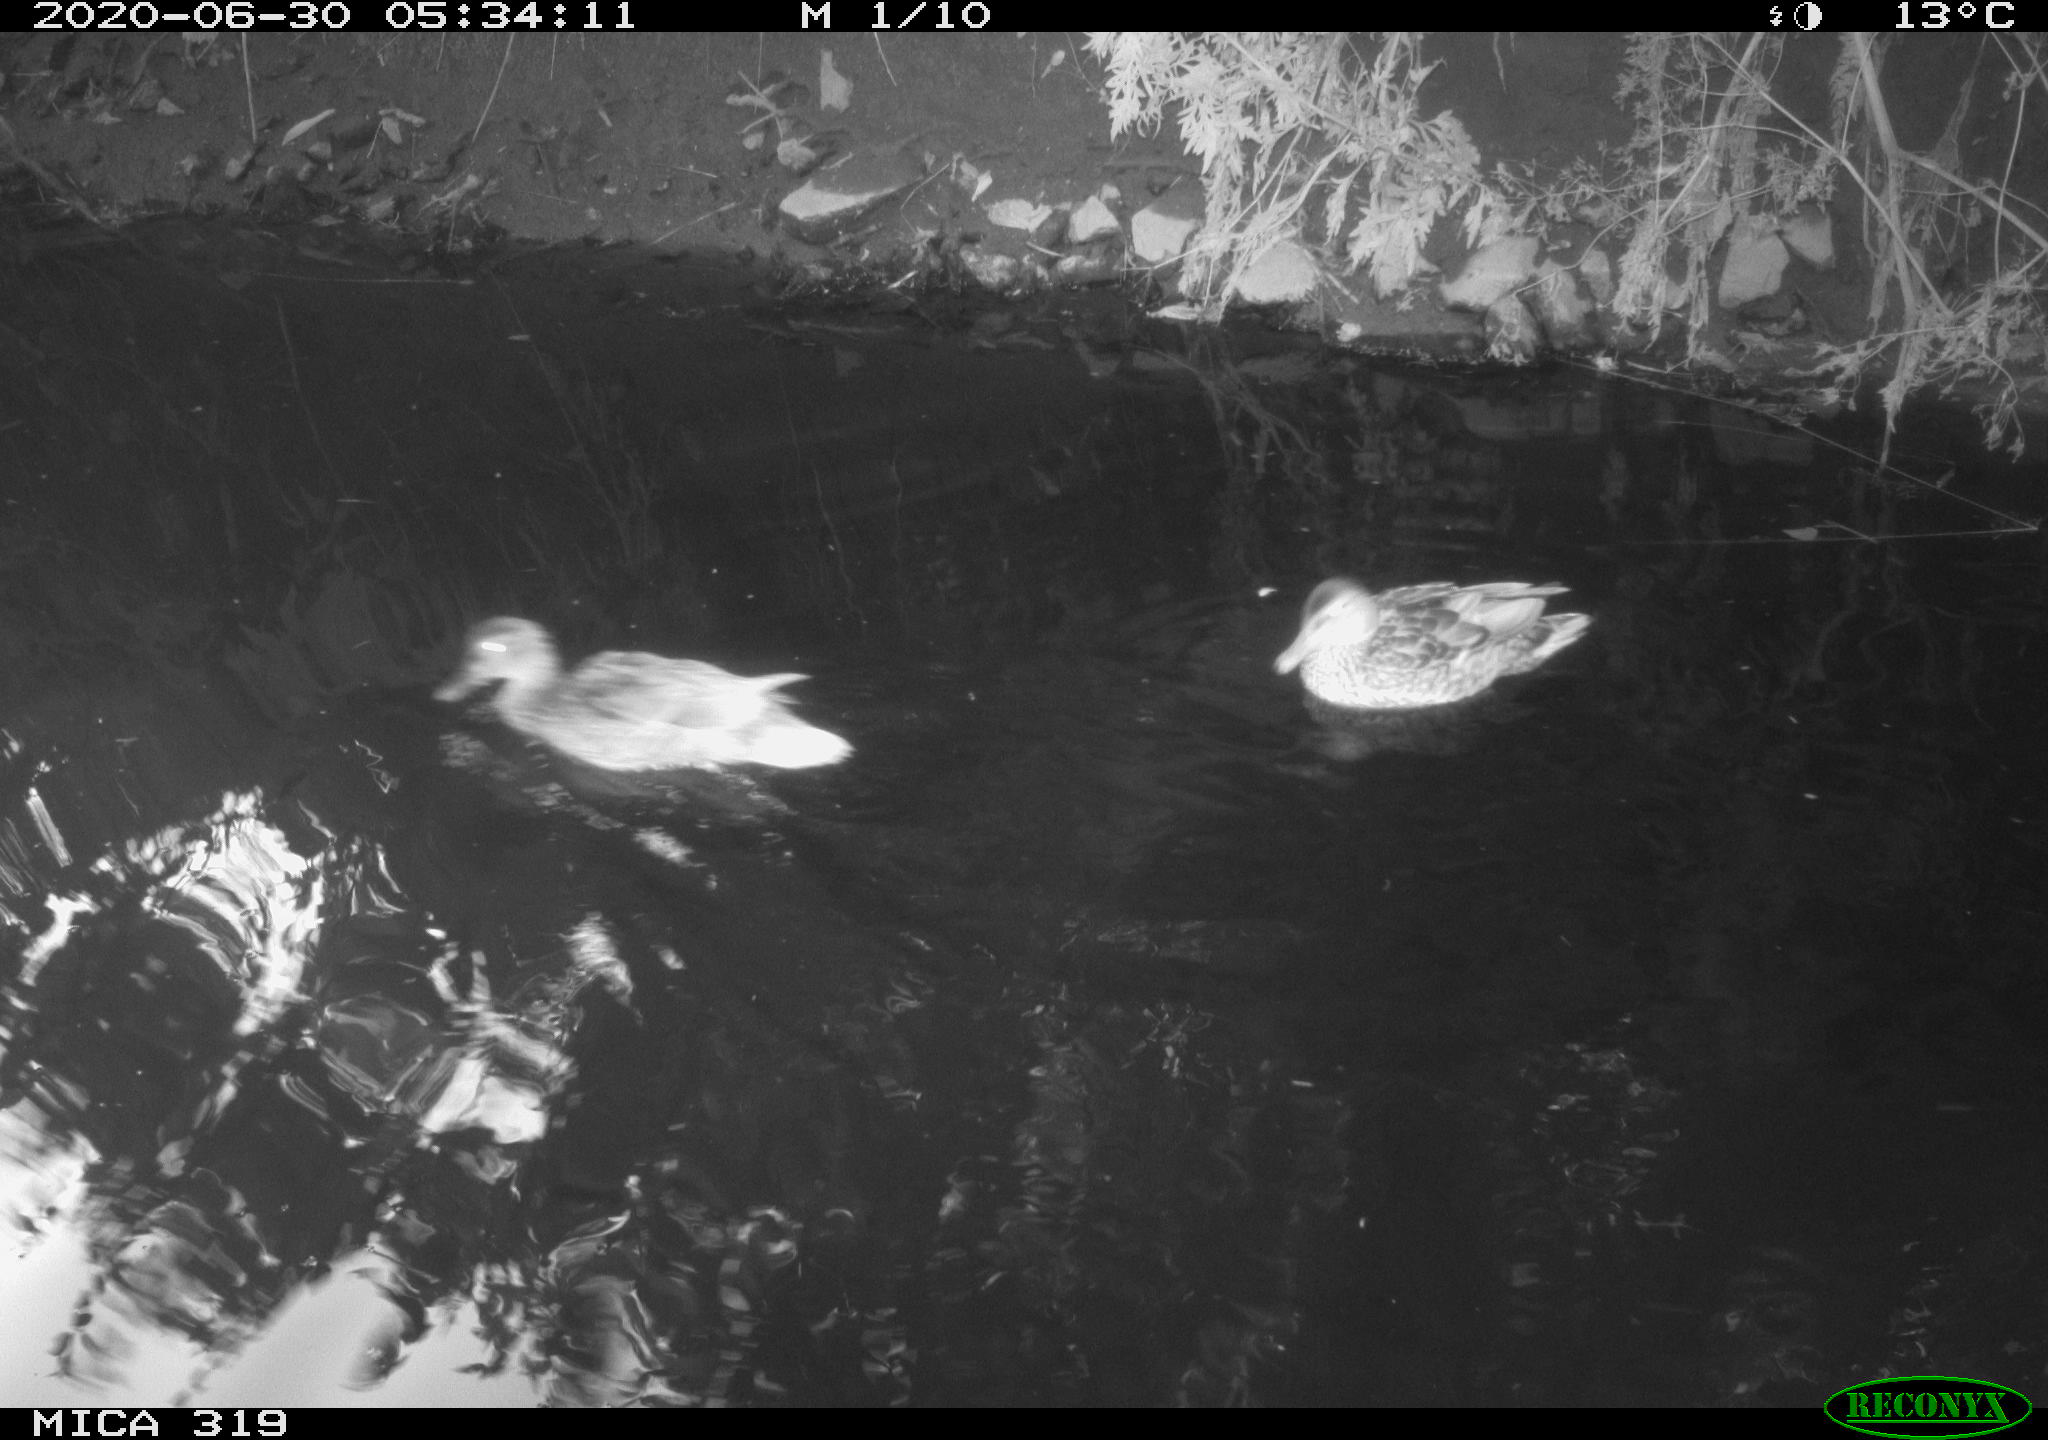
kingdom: Animalia
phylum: Chordata
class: Aves
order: Anseriformes
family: Anatidae
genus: Anas
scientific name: Anas platyrhynchos
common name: Mallard
